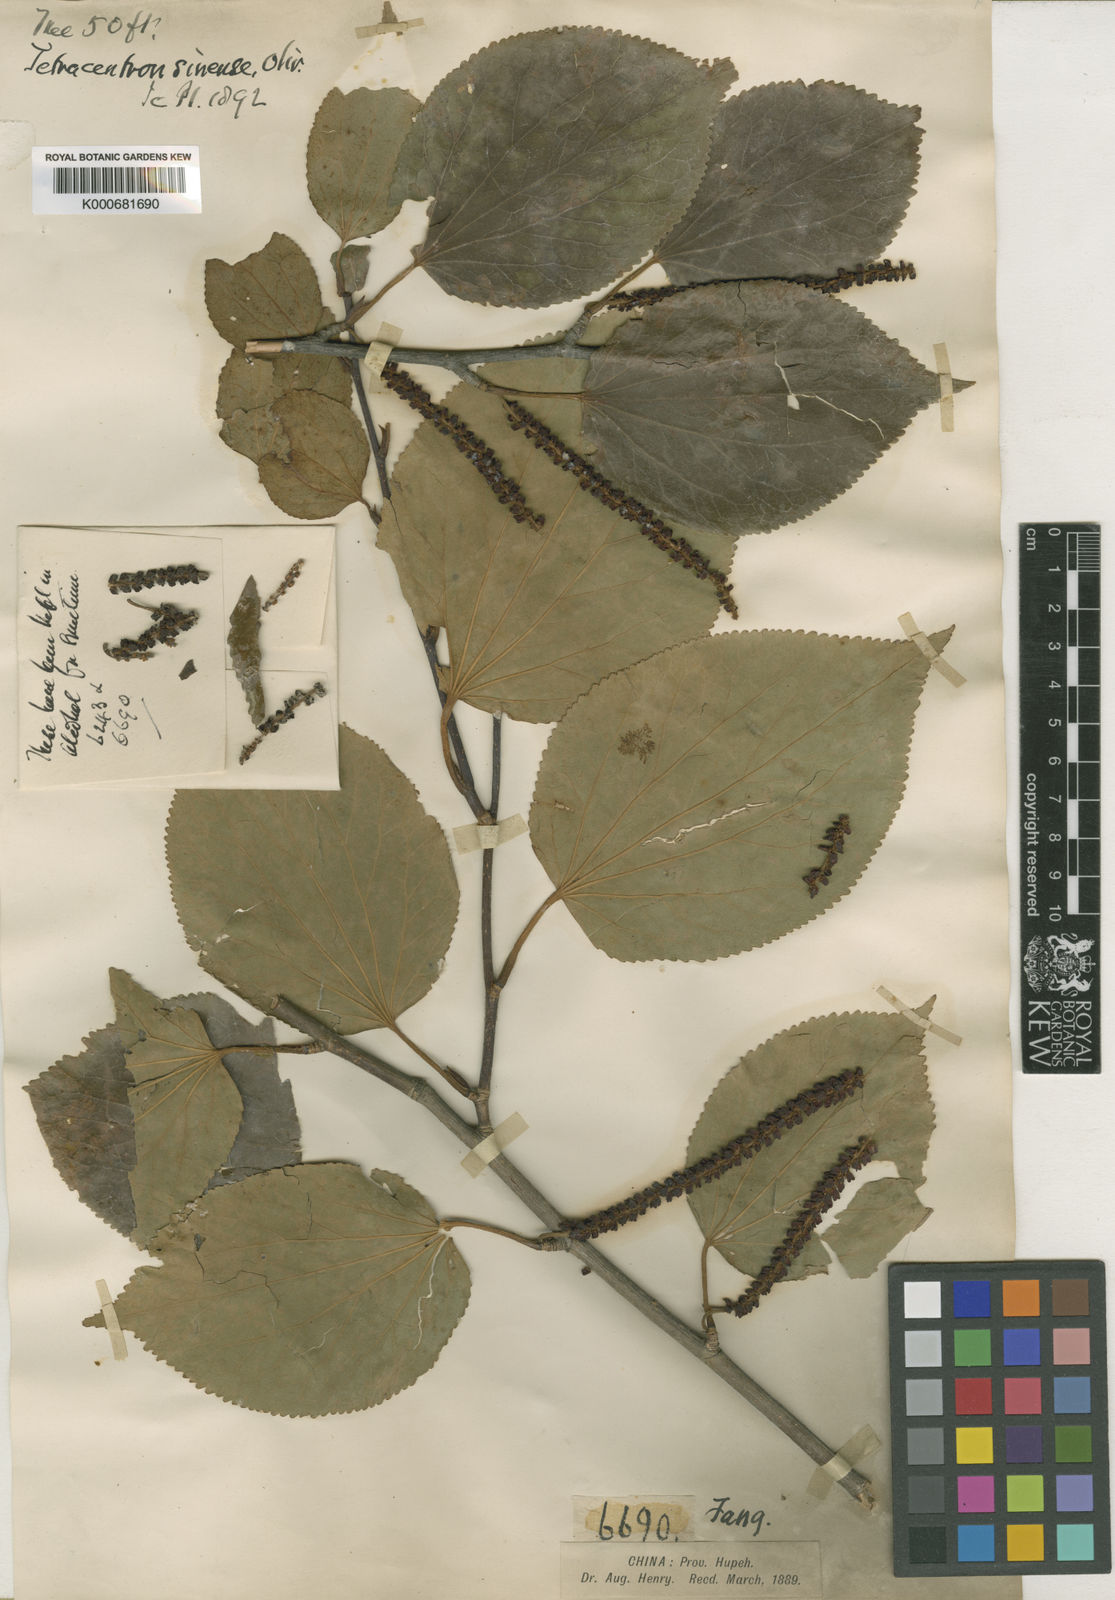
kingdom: Plantae
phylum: Tracheophyta
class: Magnoliopsida
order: Trochodendrales
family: Trochodendraceae
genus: Tetracentron
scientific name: Tetracentron sinense
